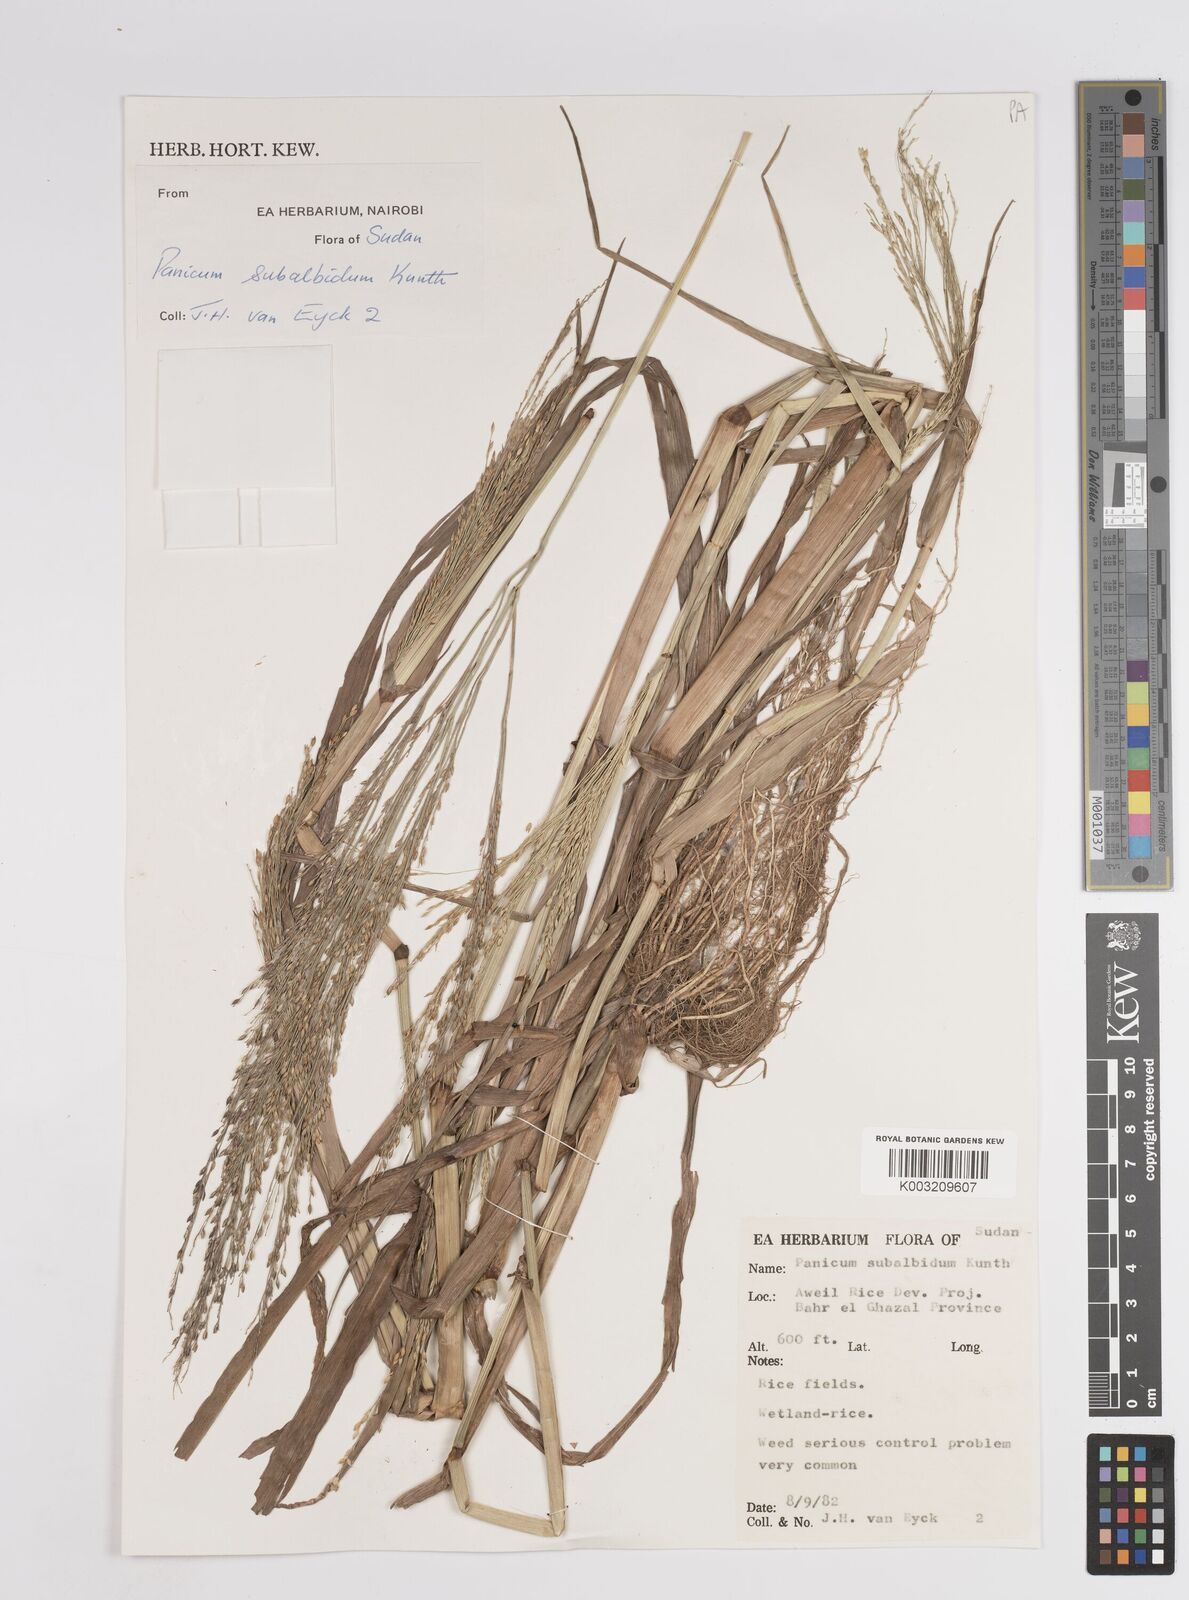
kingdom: Plantae
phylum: Tracheophyta
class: Liliopsida
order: Poales
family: Poaceae
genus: Panicum
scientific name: Panicum subalbidum
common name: Elbow buffalo grass
